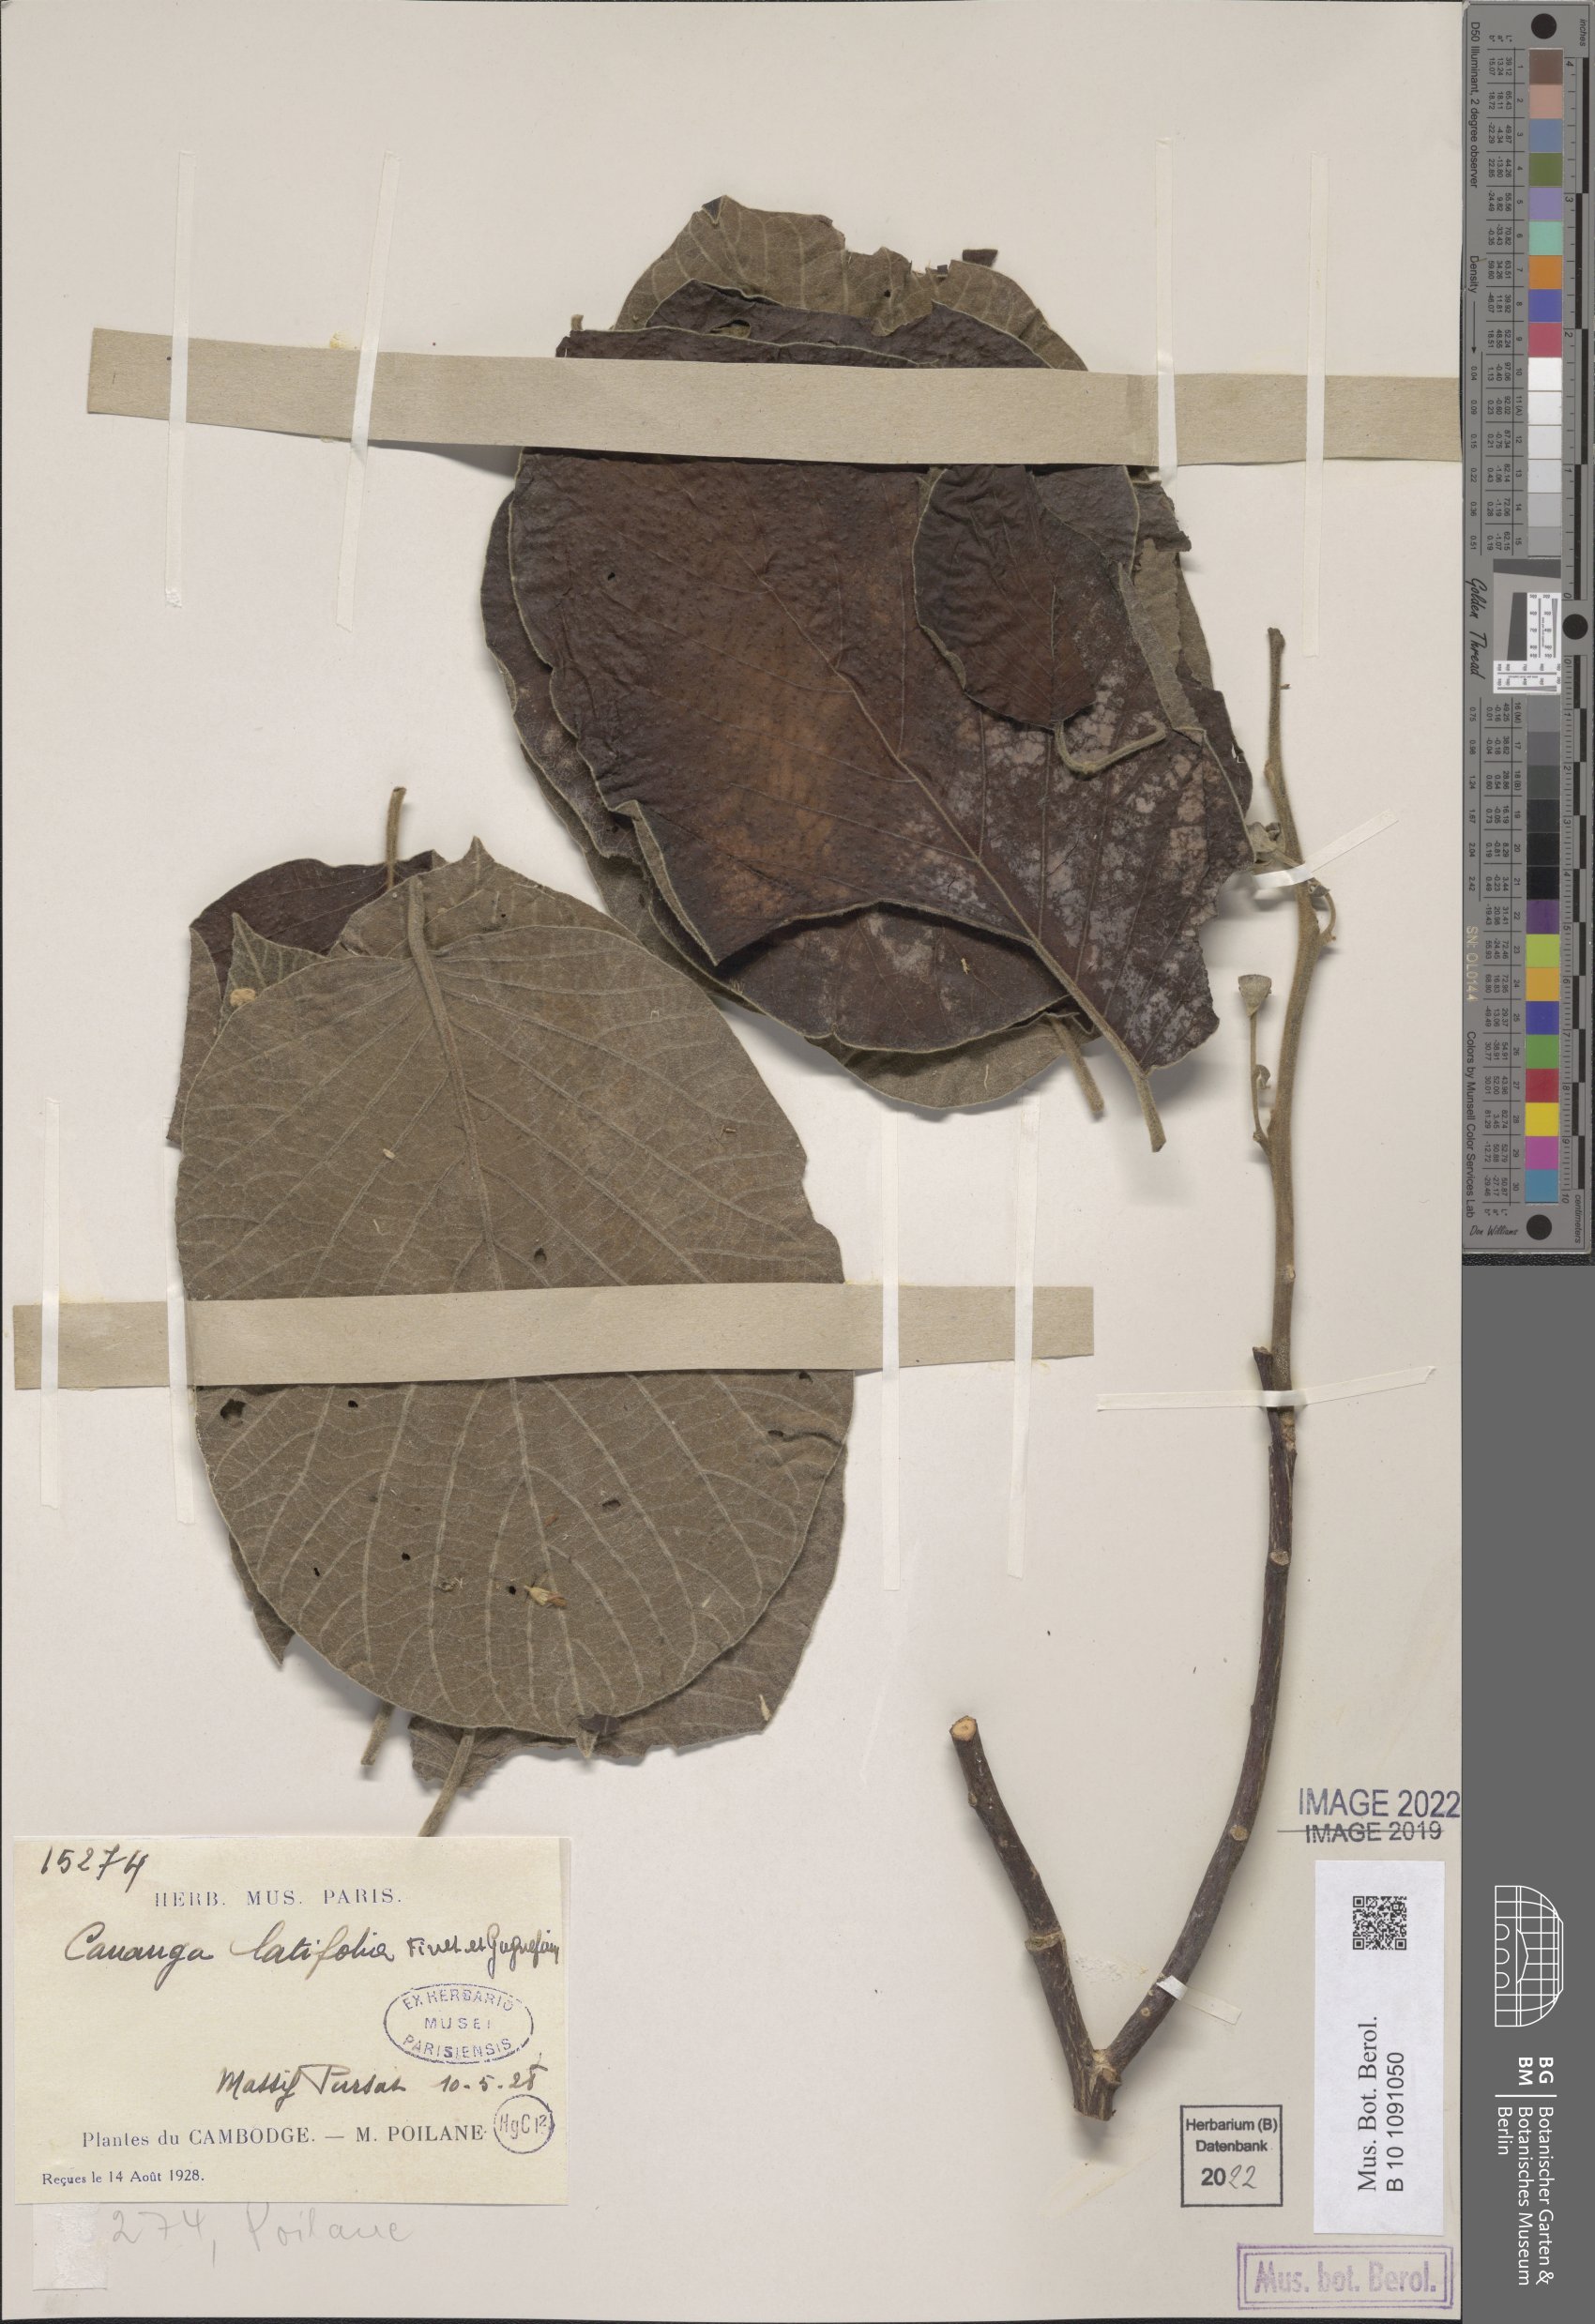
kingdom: Plantae
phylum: Tracheophyta
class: Magnoliopsida
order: Magnoliales
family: Annonaceae
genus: Cananga
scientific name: Cananga brandisiana
